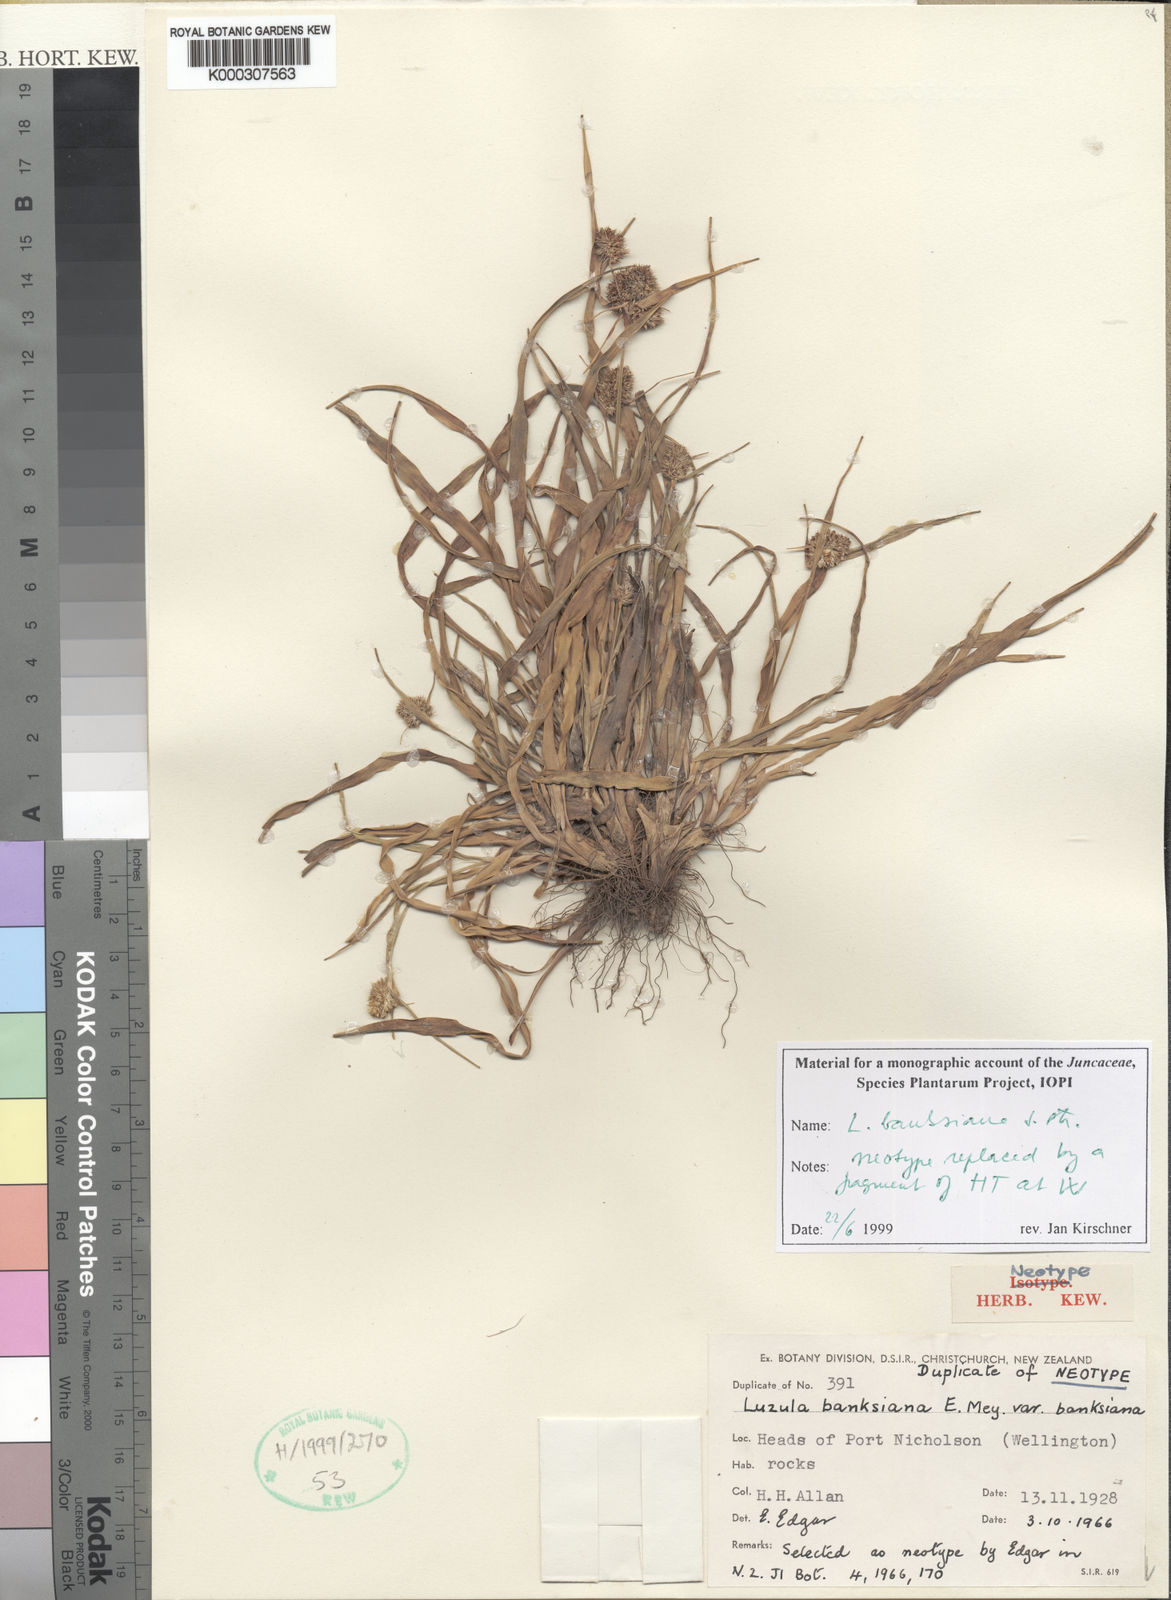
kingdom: Plantae
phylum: Tracheophyta
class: Liliopsida
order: Poales
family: Juncaceae
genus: Luzula
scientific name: Luzula banksiana
